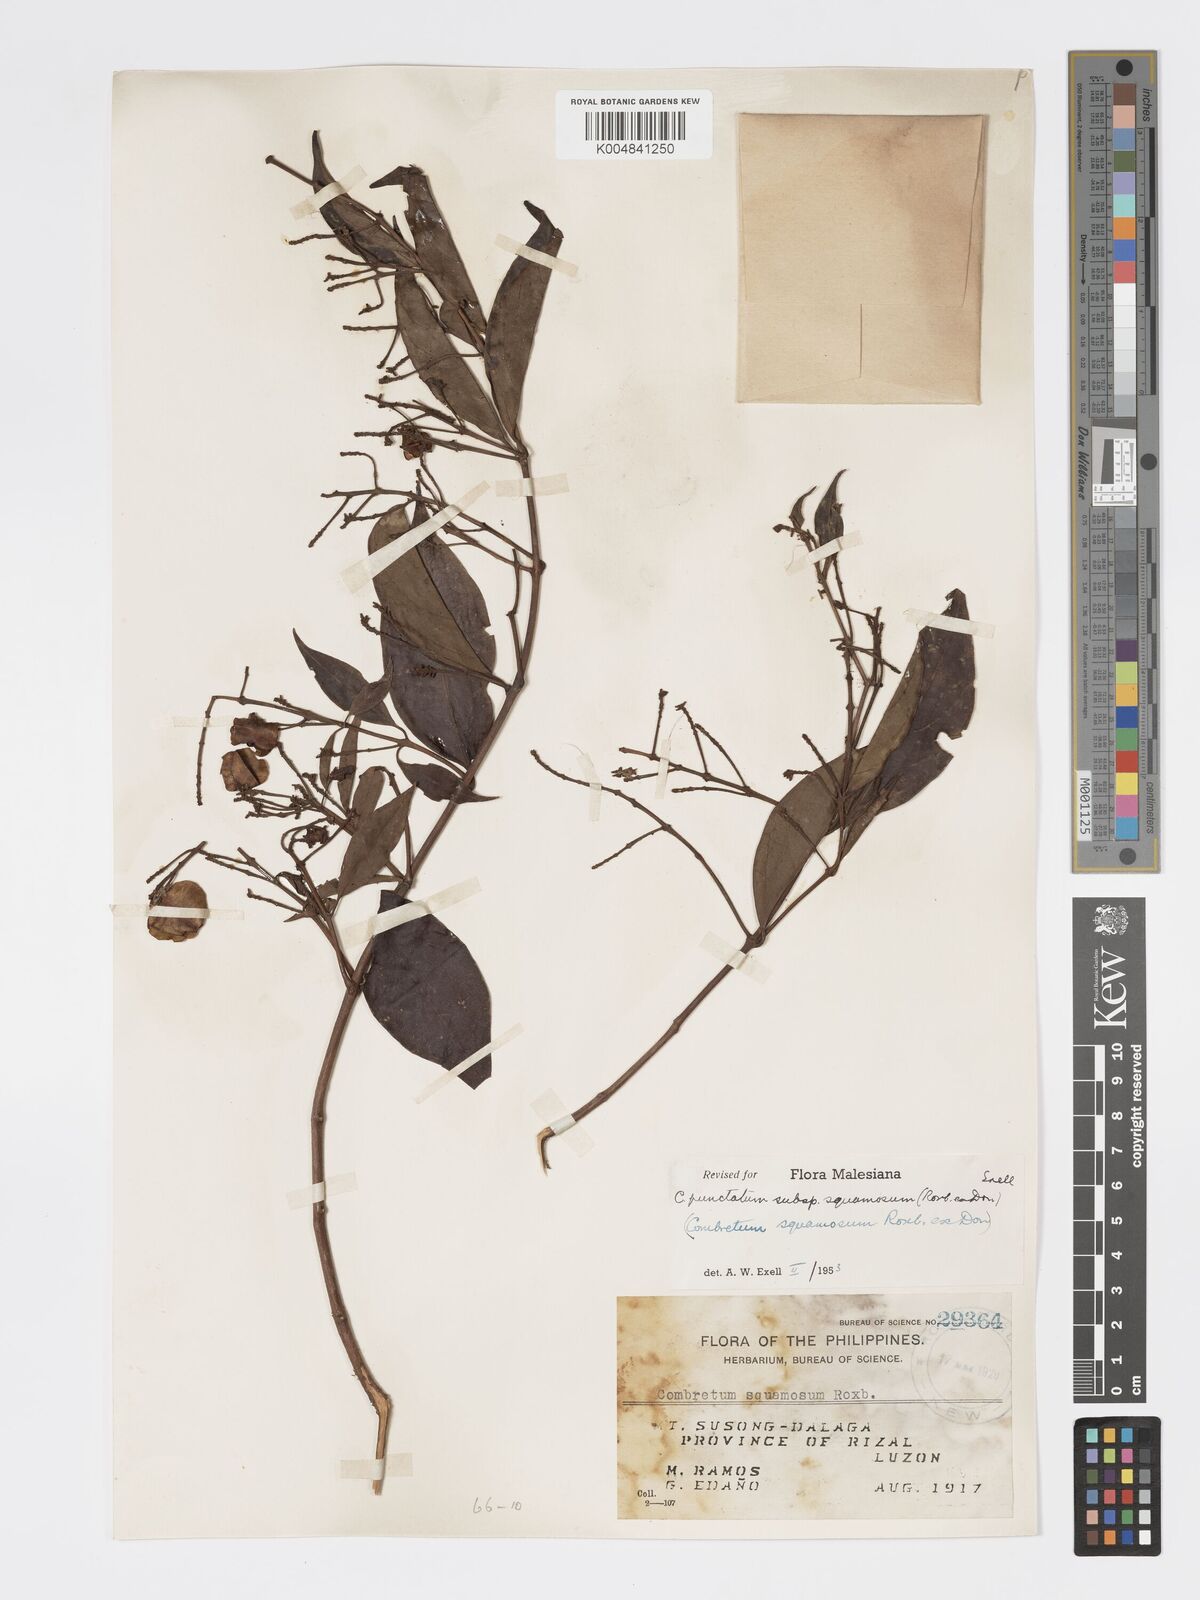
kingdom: Plantae
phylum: Tracheophyta
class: Magnoliopsida
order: Myrtales
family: Combretaceae
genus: Combretum
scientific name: Combretum
